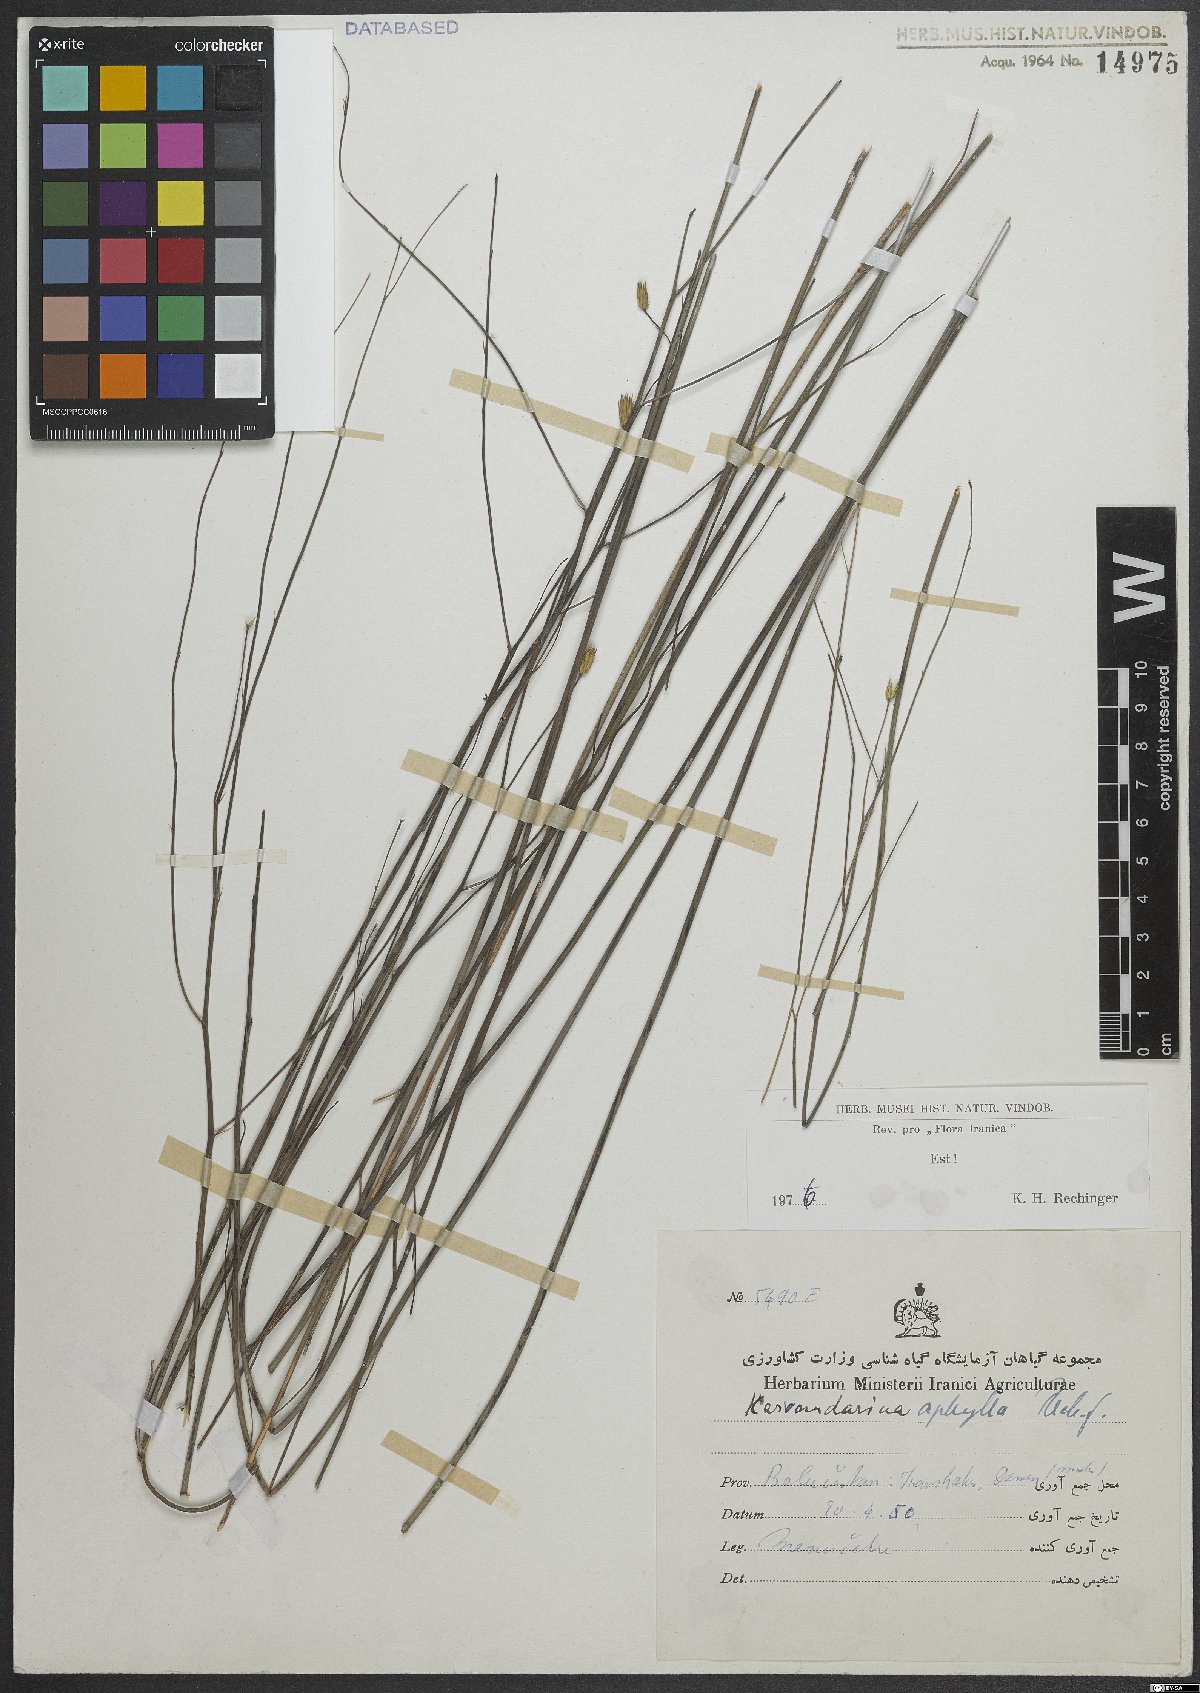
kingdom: Plantae
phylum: Tracheophyta
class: Magnoliopsida
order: Asterales
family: Asteraceae
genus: Karvandarina
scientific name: Karvandarina aphylla
